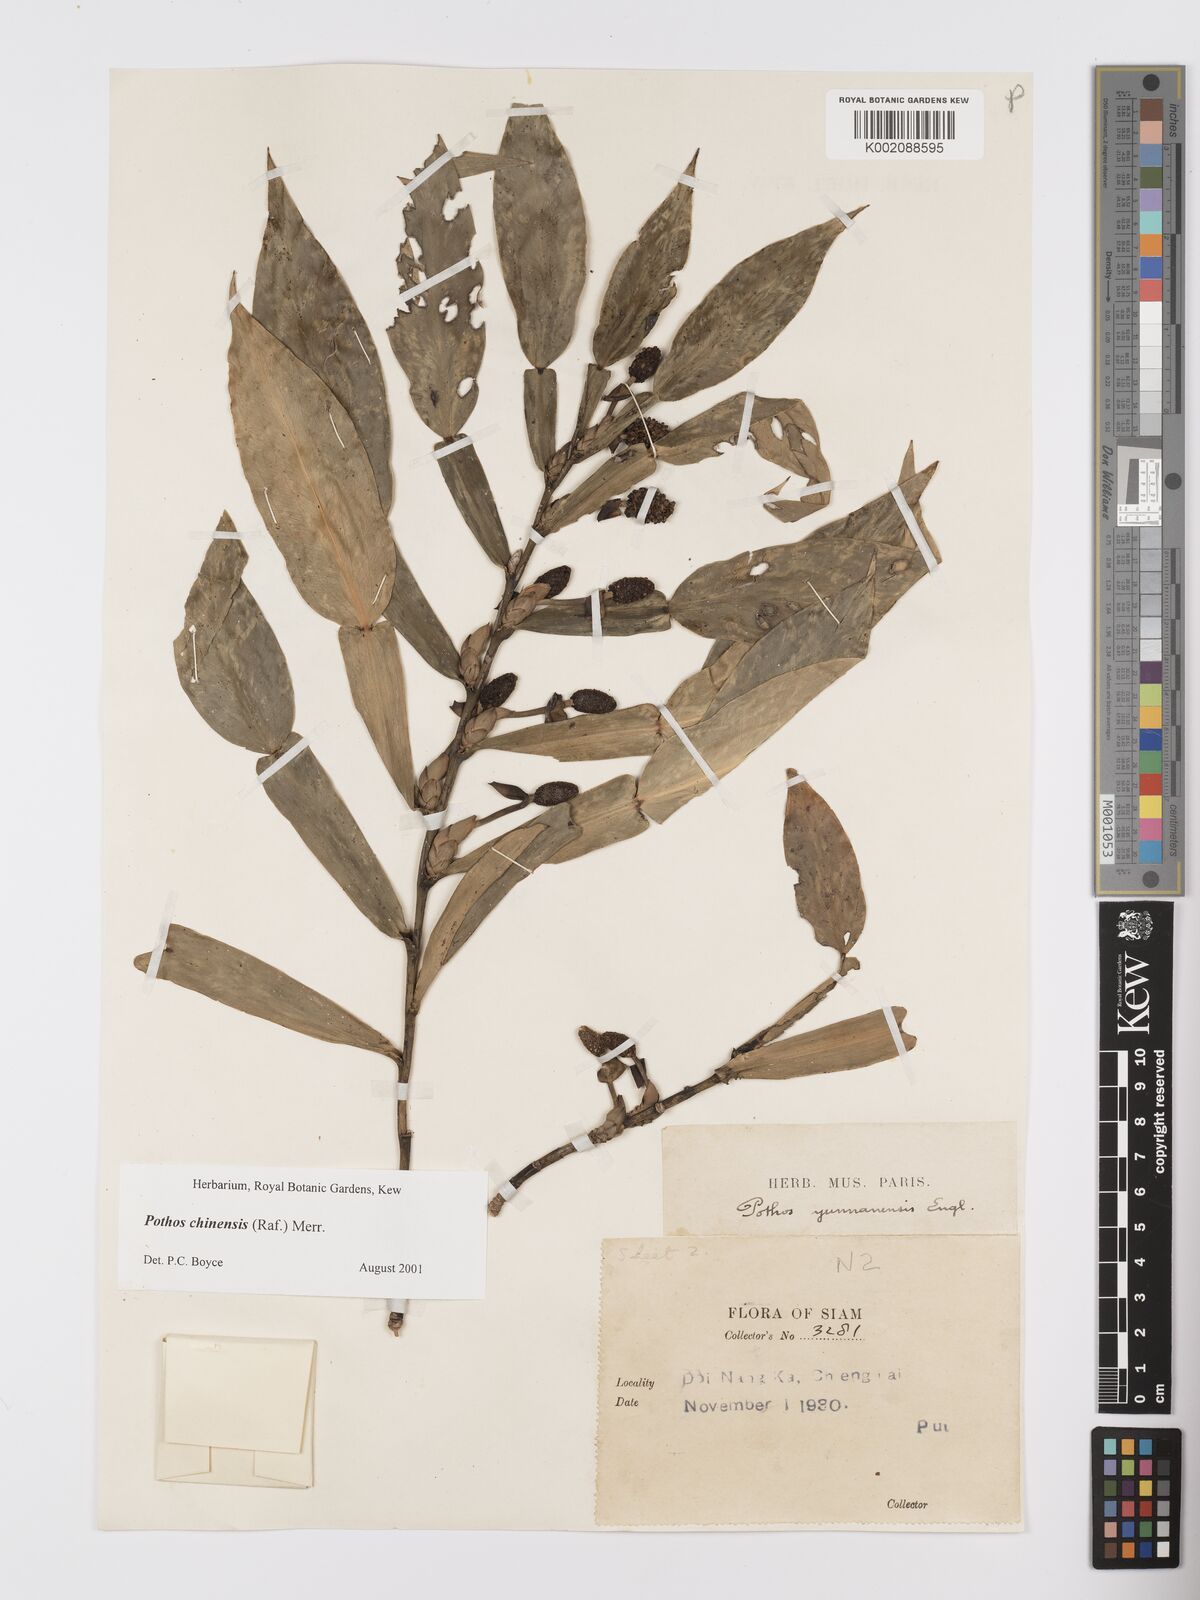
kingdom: Plantae
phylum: Tracheophyta
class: Liliopsida
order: Alismatales
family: Araceae
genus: Pothos
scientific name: Pothos chinensis
